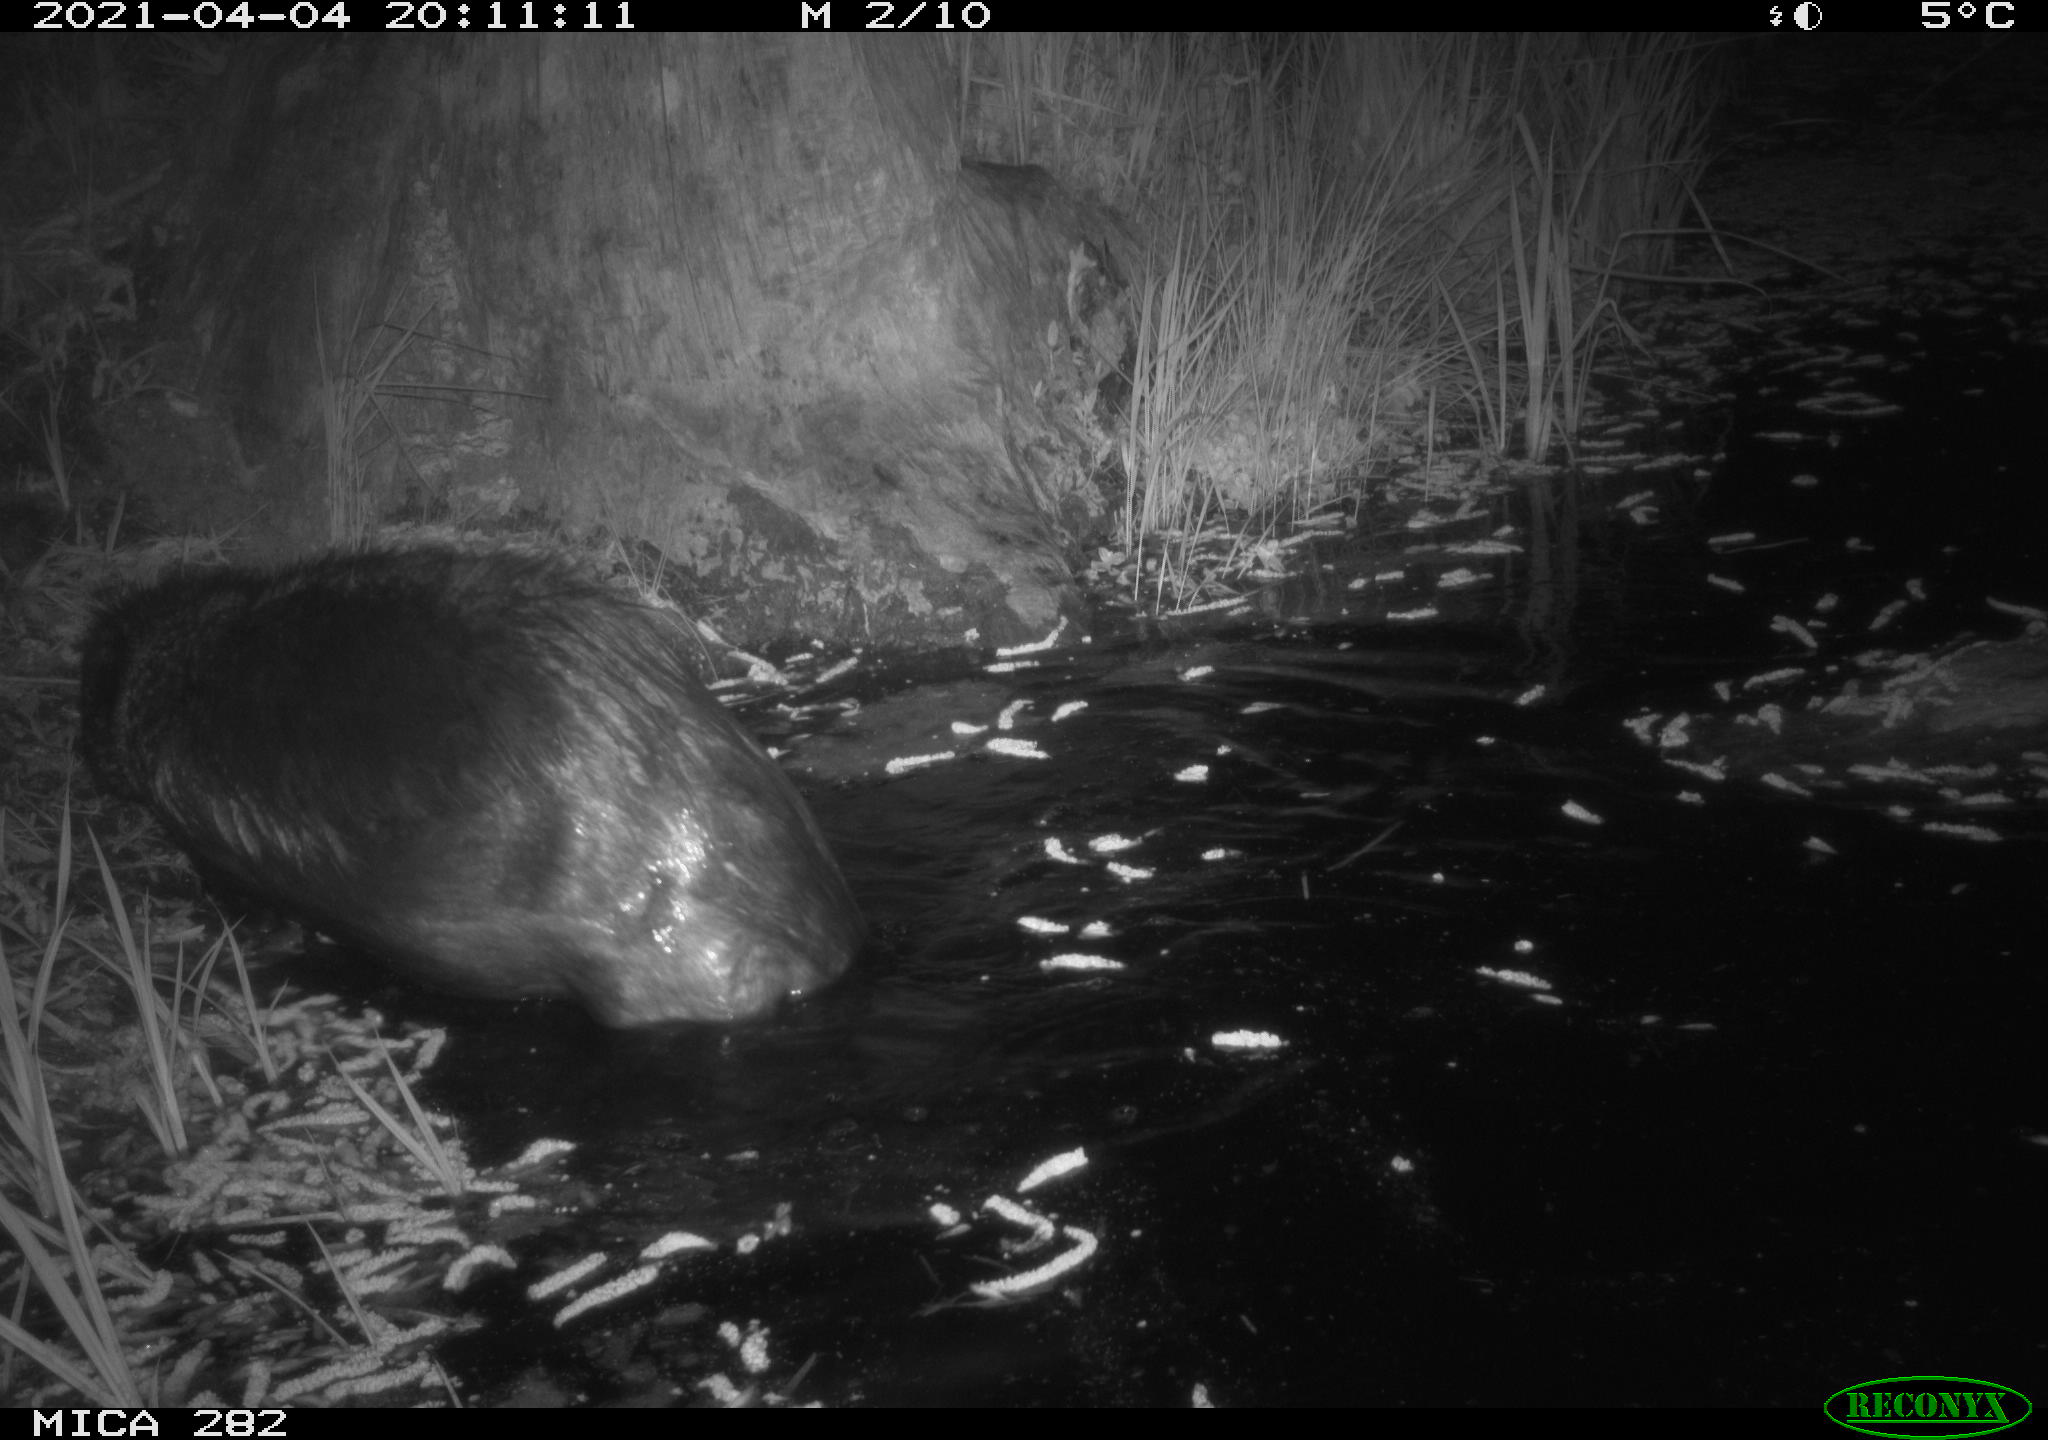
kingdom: Animalia
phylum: Chordata
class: Mammalia
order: Rodentia
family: Castoridae
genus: Castor
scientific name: Castor fiber
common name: Eurasian beaver
